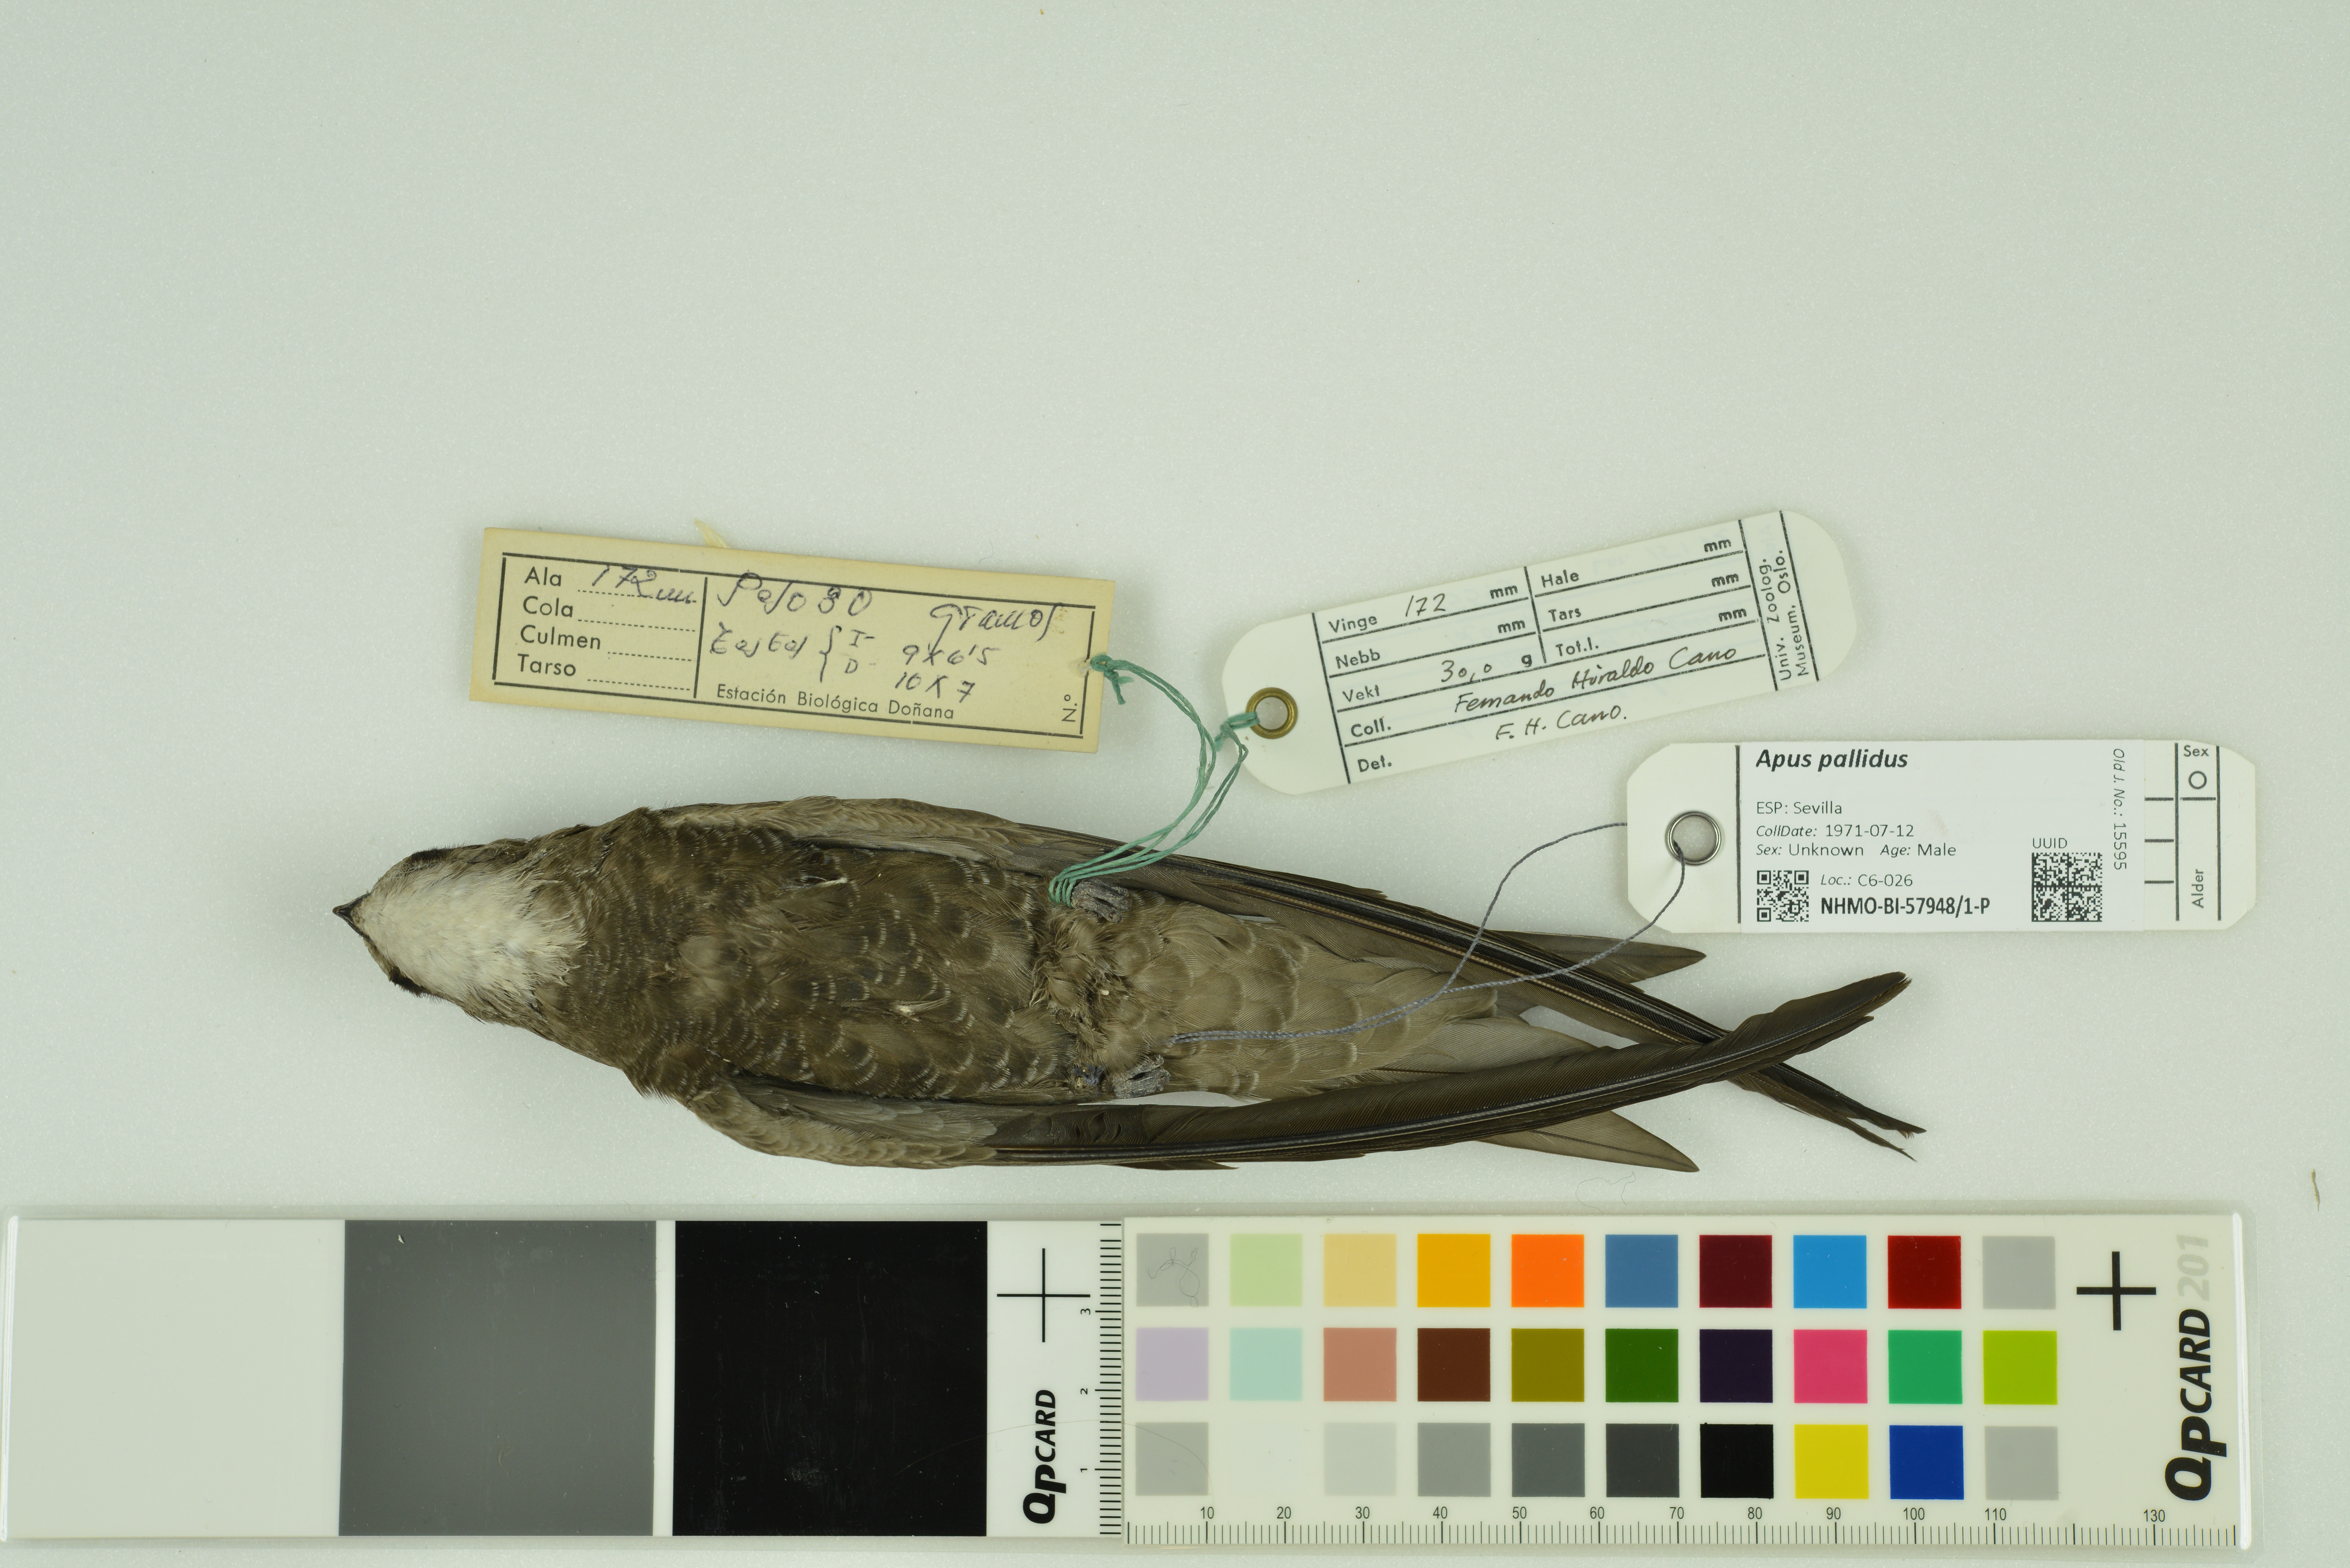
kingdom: Animalia
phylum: Chordata
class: Aves
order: Apodiformes
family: Apodidae
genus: Apus
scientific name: Apus pallidus
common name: Pallid swift
